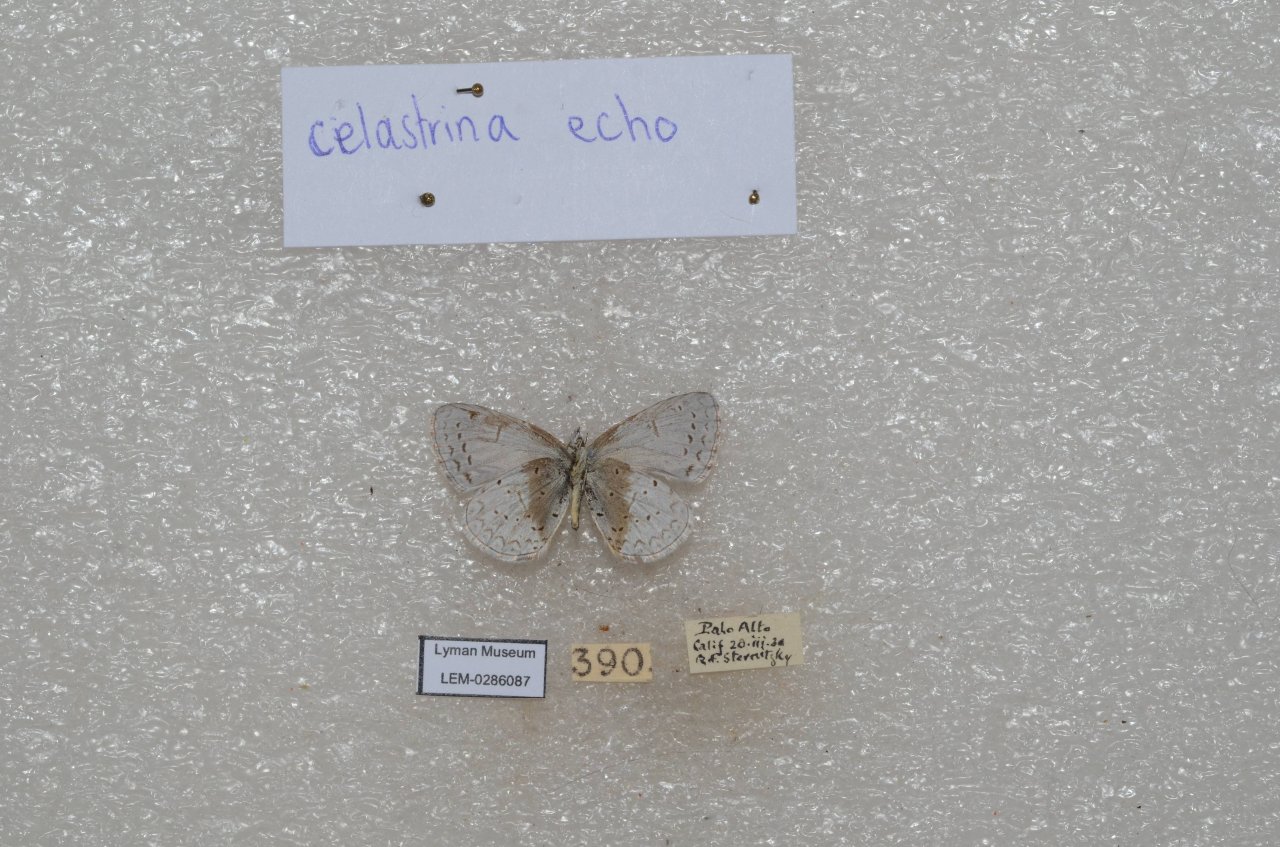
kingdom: Animalia
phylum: Arthropoda
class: Insecta
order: Lepidoptera
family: Lycaenidae
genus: Celastrina
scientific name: Celastrina ladon
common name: Echo Azure
